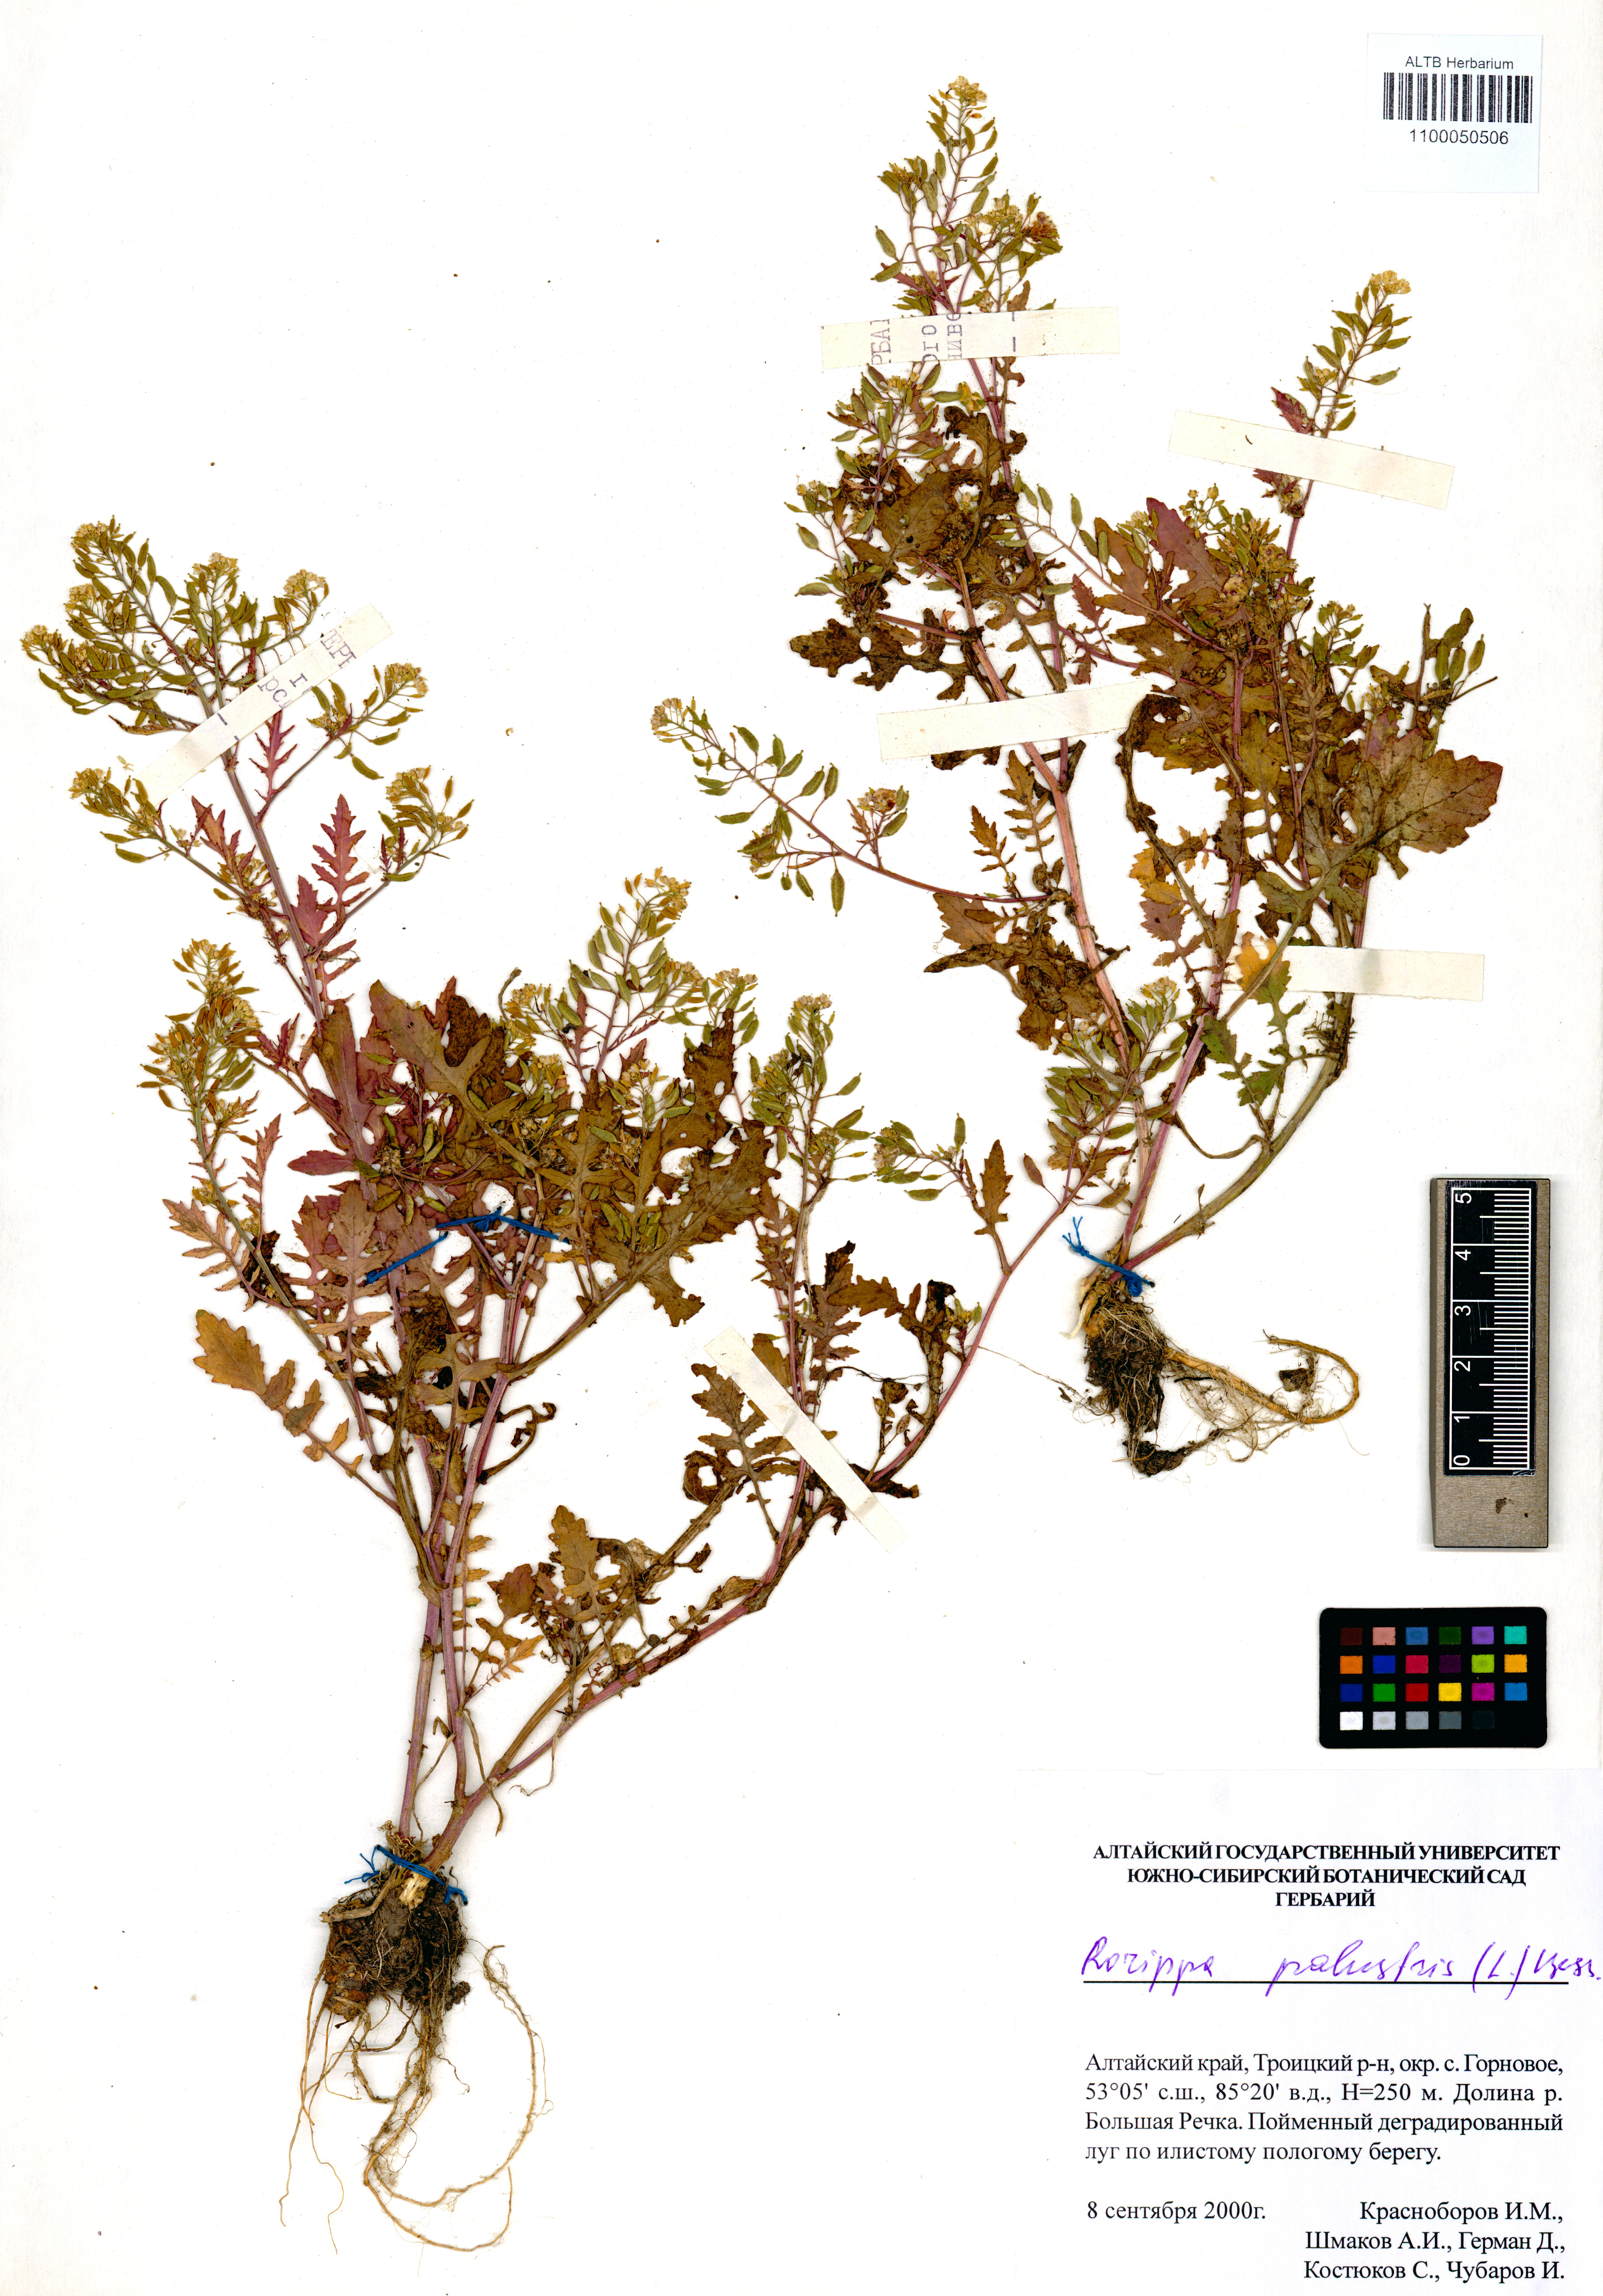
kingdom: Plantae
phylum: Tracheophyta
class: Magnoliopsida
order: Brassicales
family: Brassicaceae
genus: Rorippa
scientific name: Rorippa palustris
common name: Marsh yellow-cress
